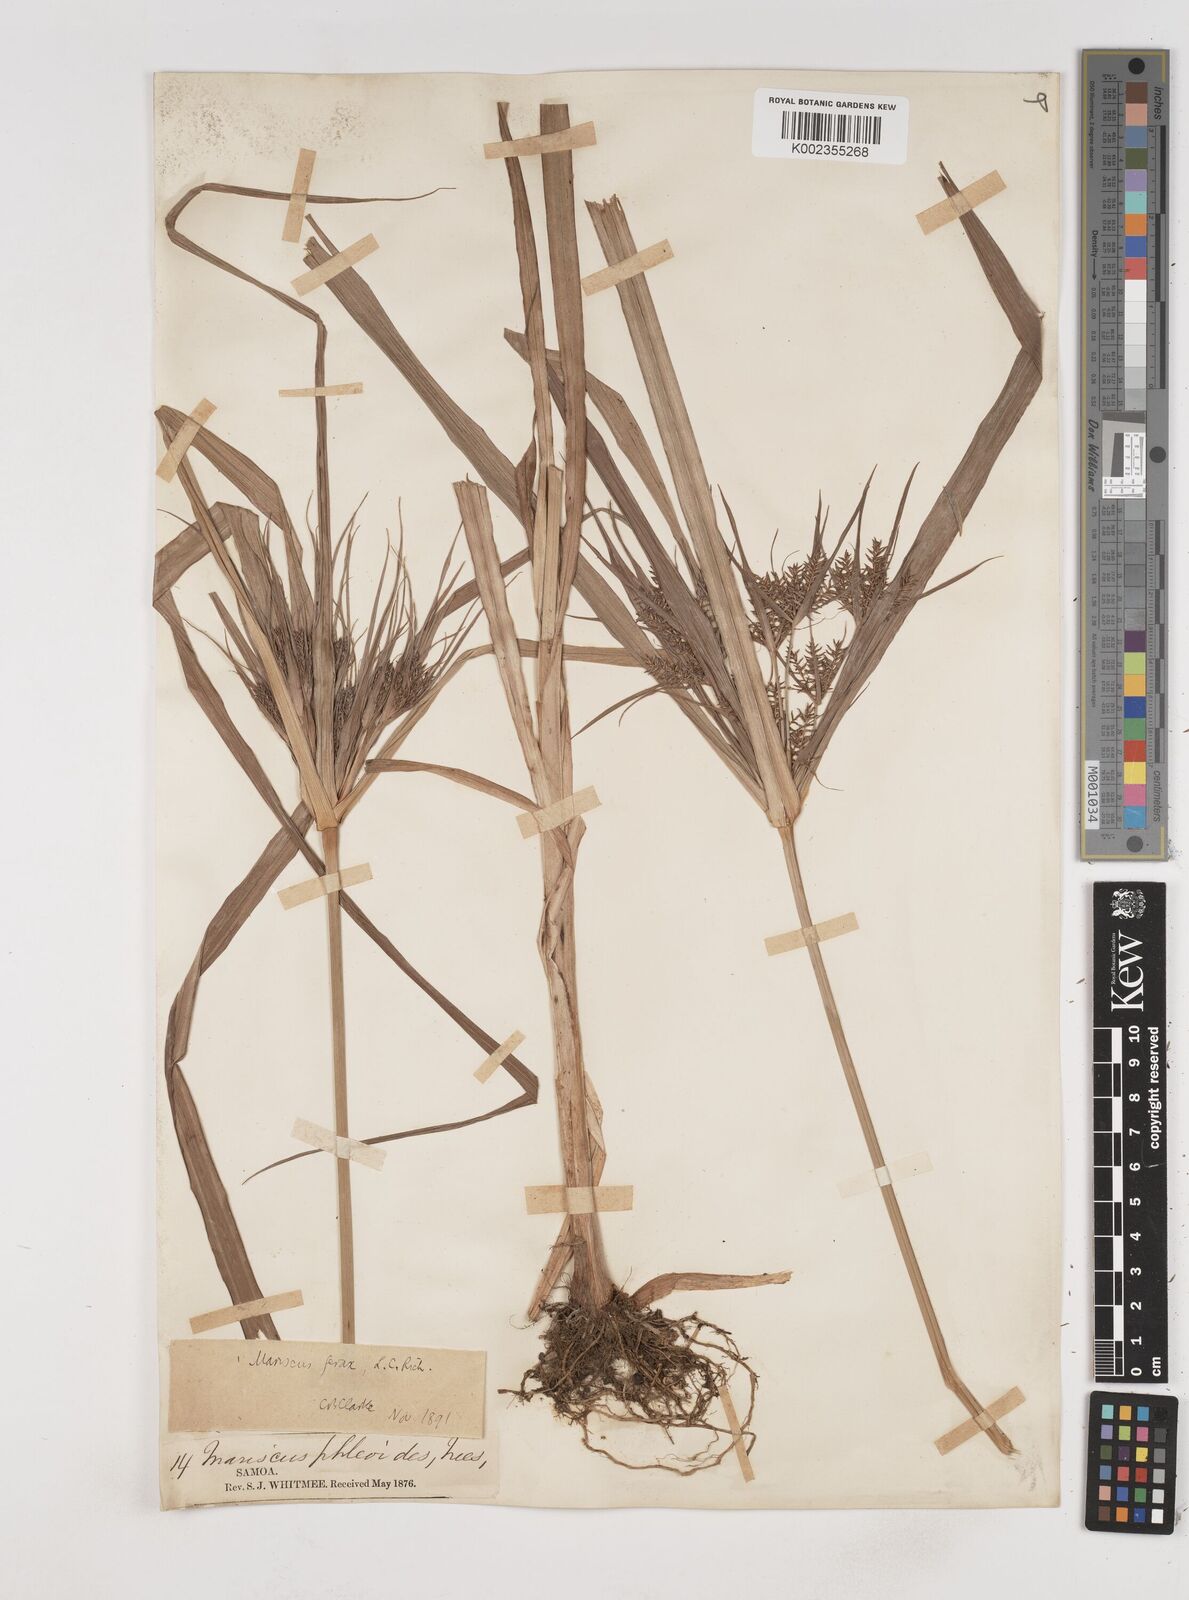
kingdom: Plantae
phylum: Tracheophyta
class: Liliopsida
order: Poales
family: Cyperaceae
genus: Cyperus
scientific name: Cyperus odoratus
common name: Fragrant flatsedge
